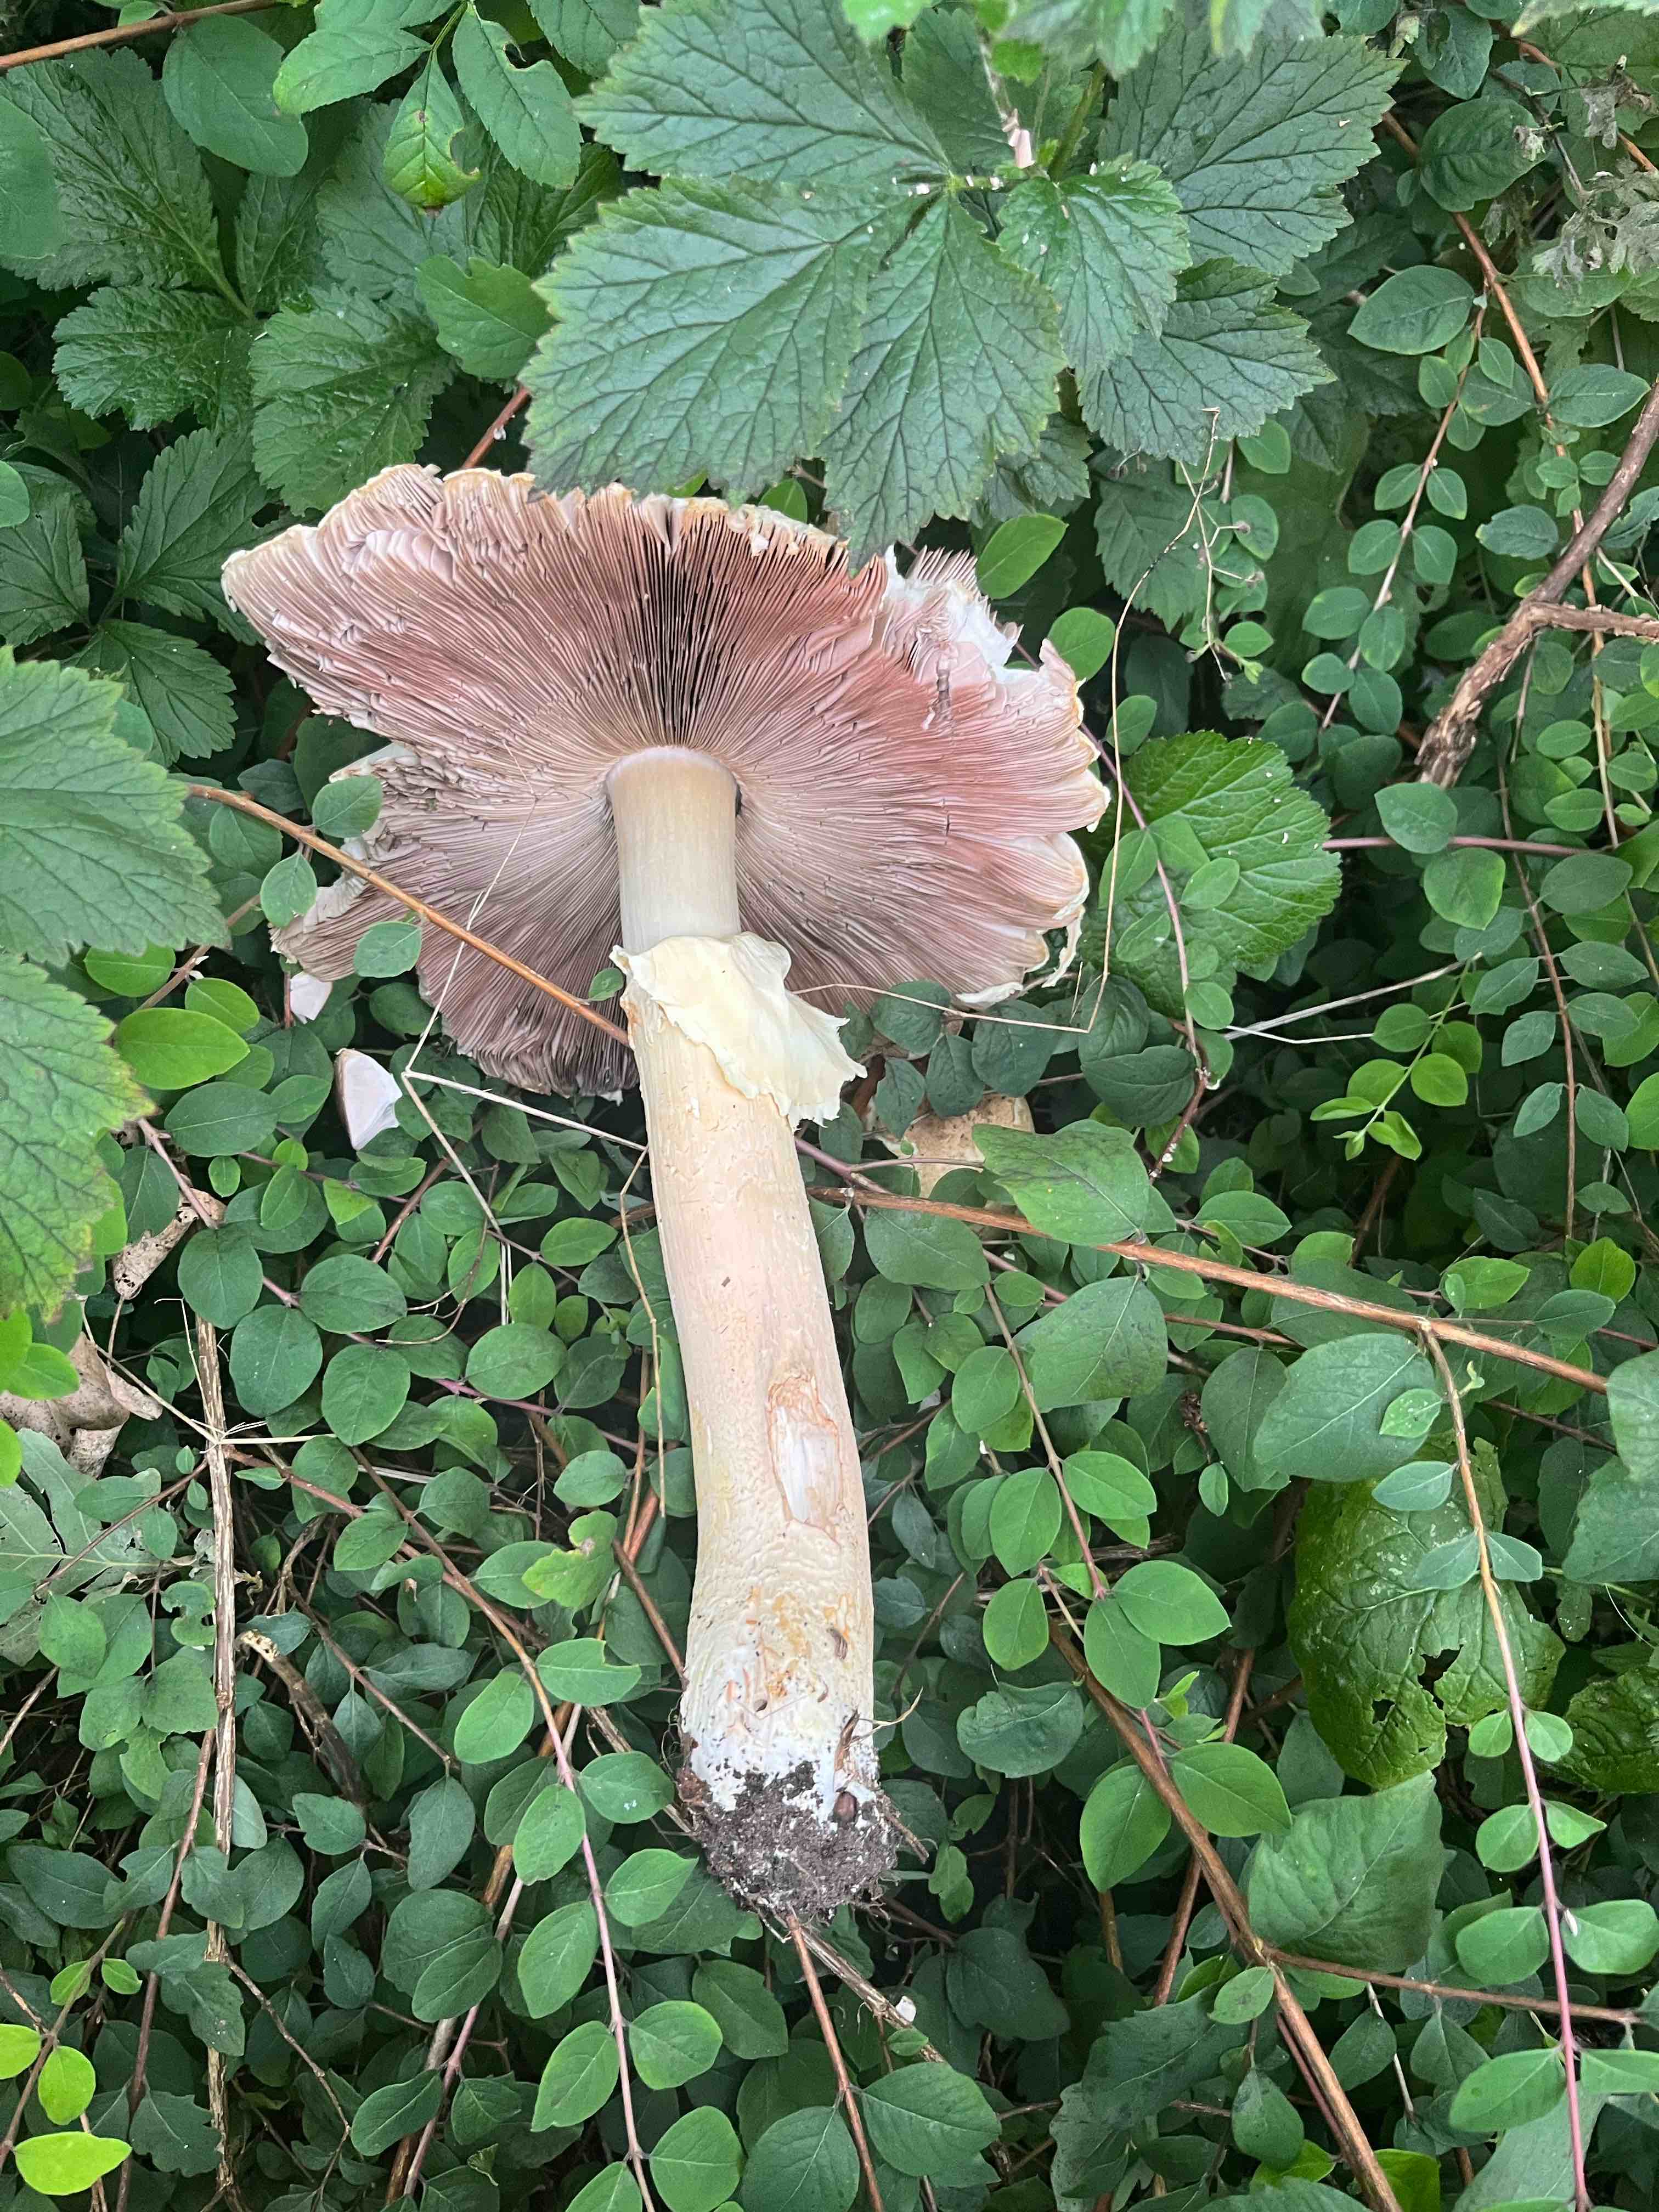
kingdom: Fungi
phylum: Basidiomycota
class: Agaricomycetes
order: Agaricales
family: Agaricaceae
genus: Agaricus
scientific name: Agaricus augustus
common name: prægtig champignon
